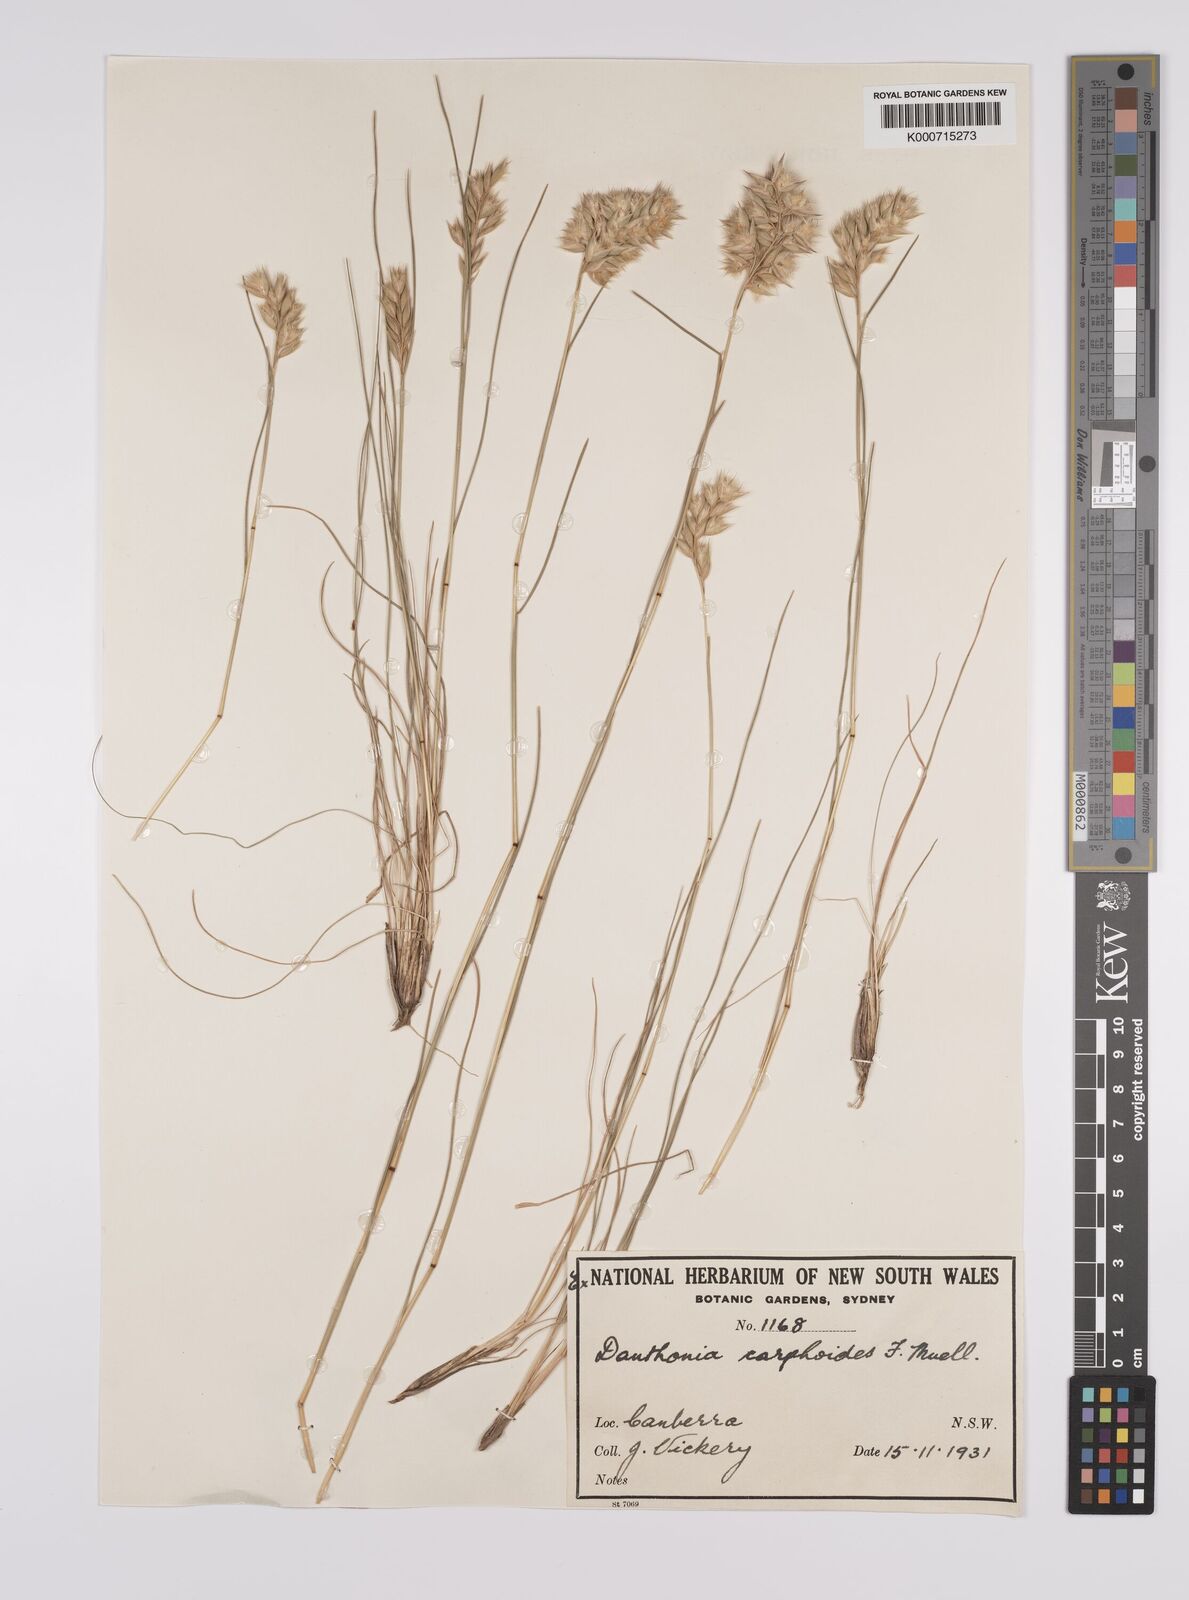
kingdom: Plantae
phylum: Tracheophyta
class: Liliopsida
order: Poales
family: Poaceae
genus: Rytidosperma
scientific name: Rytidosperma carphoides
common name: Short wallaby grass
